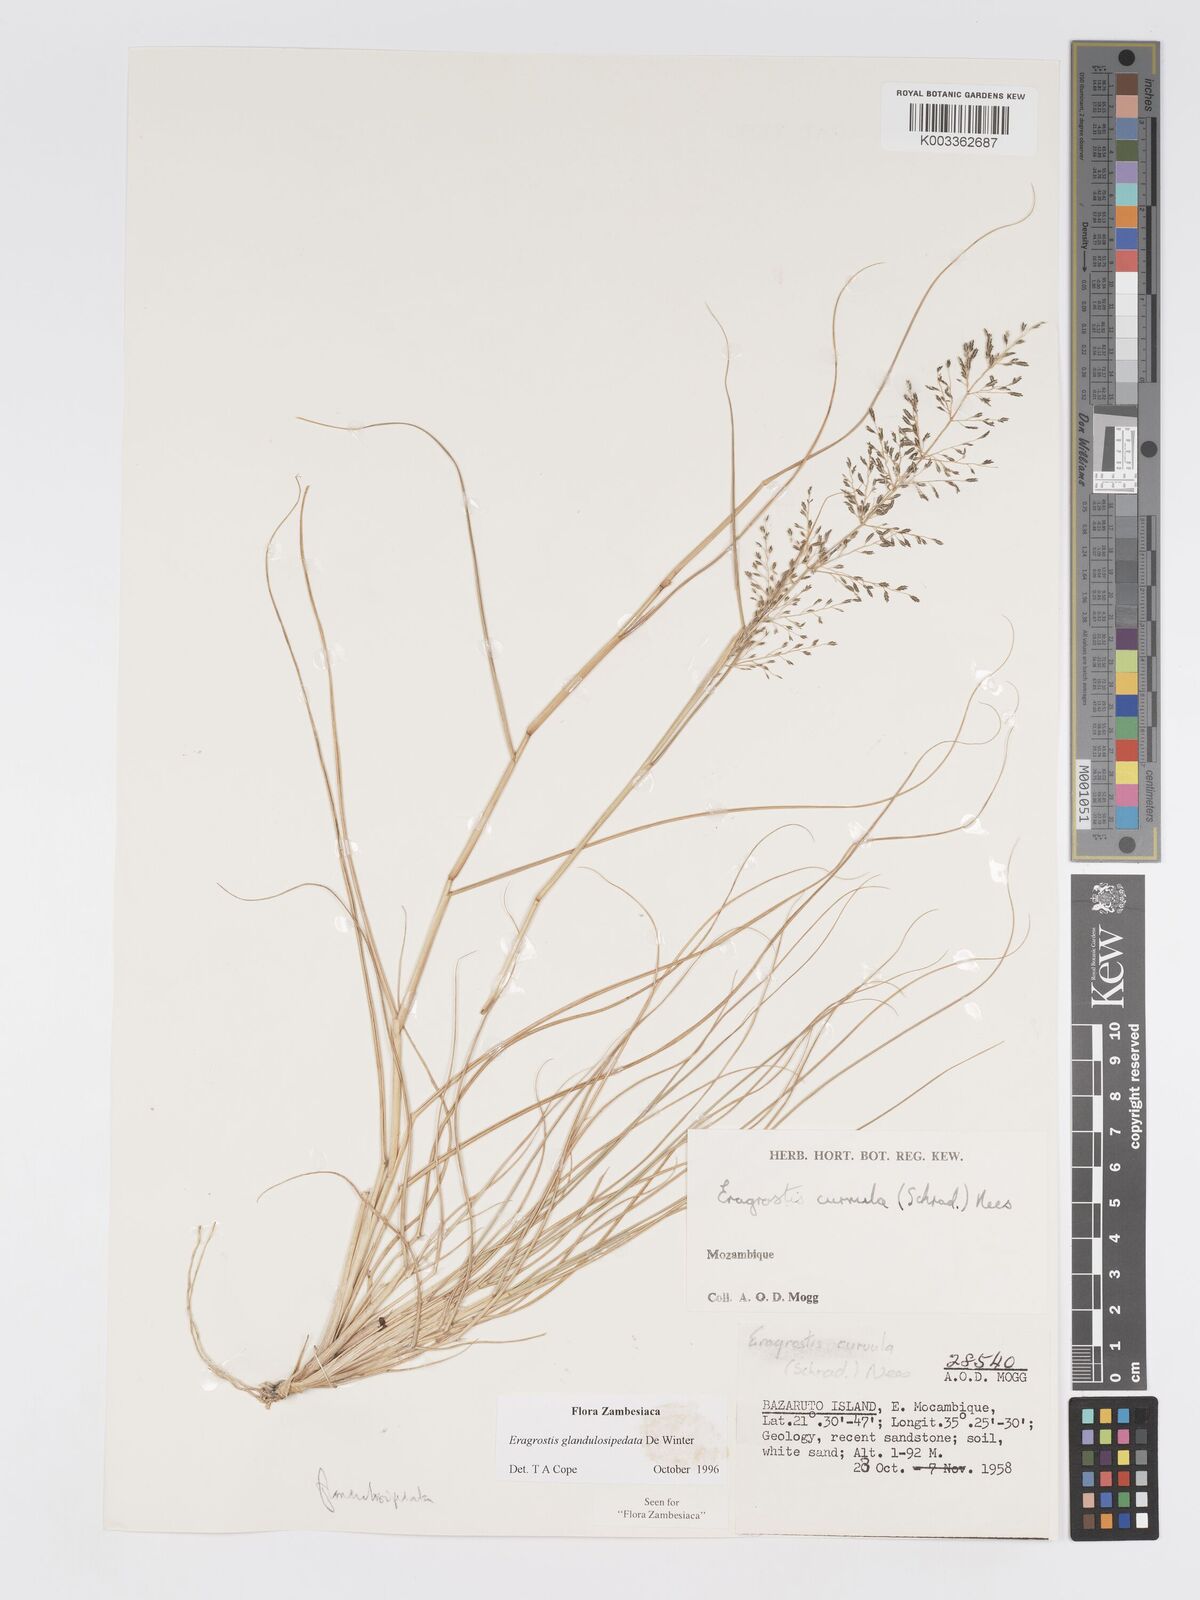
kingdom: Plantae
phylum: Tracheophyta
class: Liliopsida
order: Poales
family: Poaceae
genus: Eragrostis
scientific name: Eragrostis glandulosipedata
